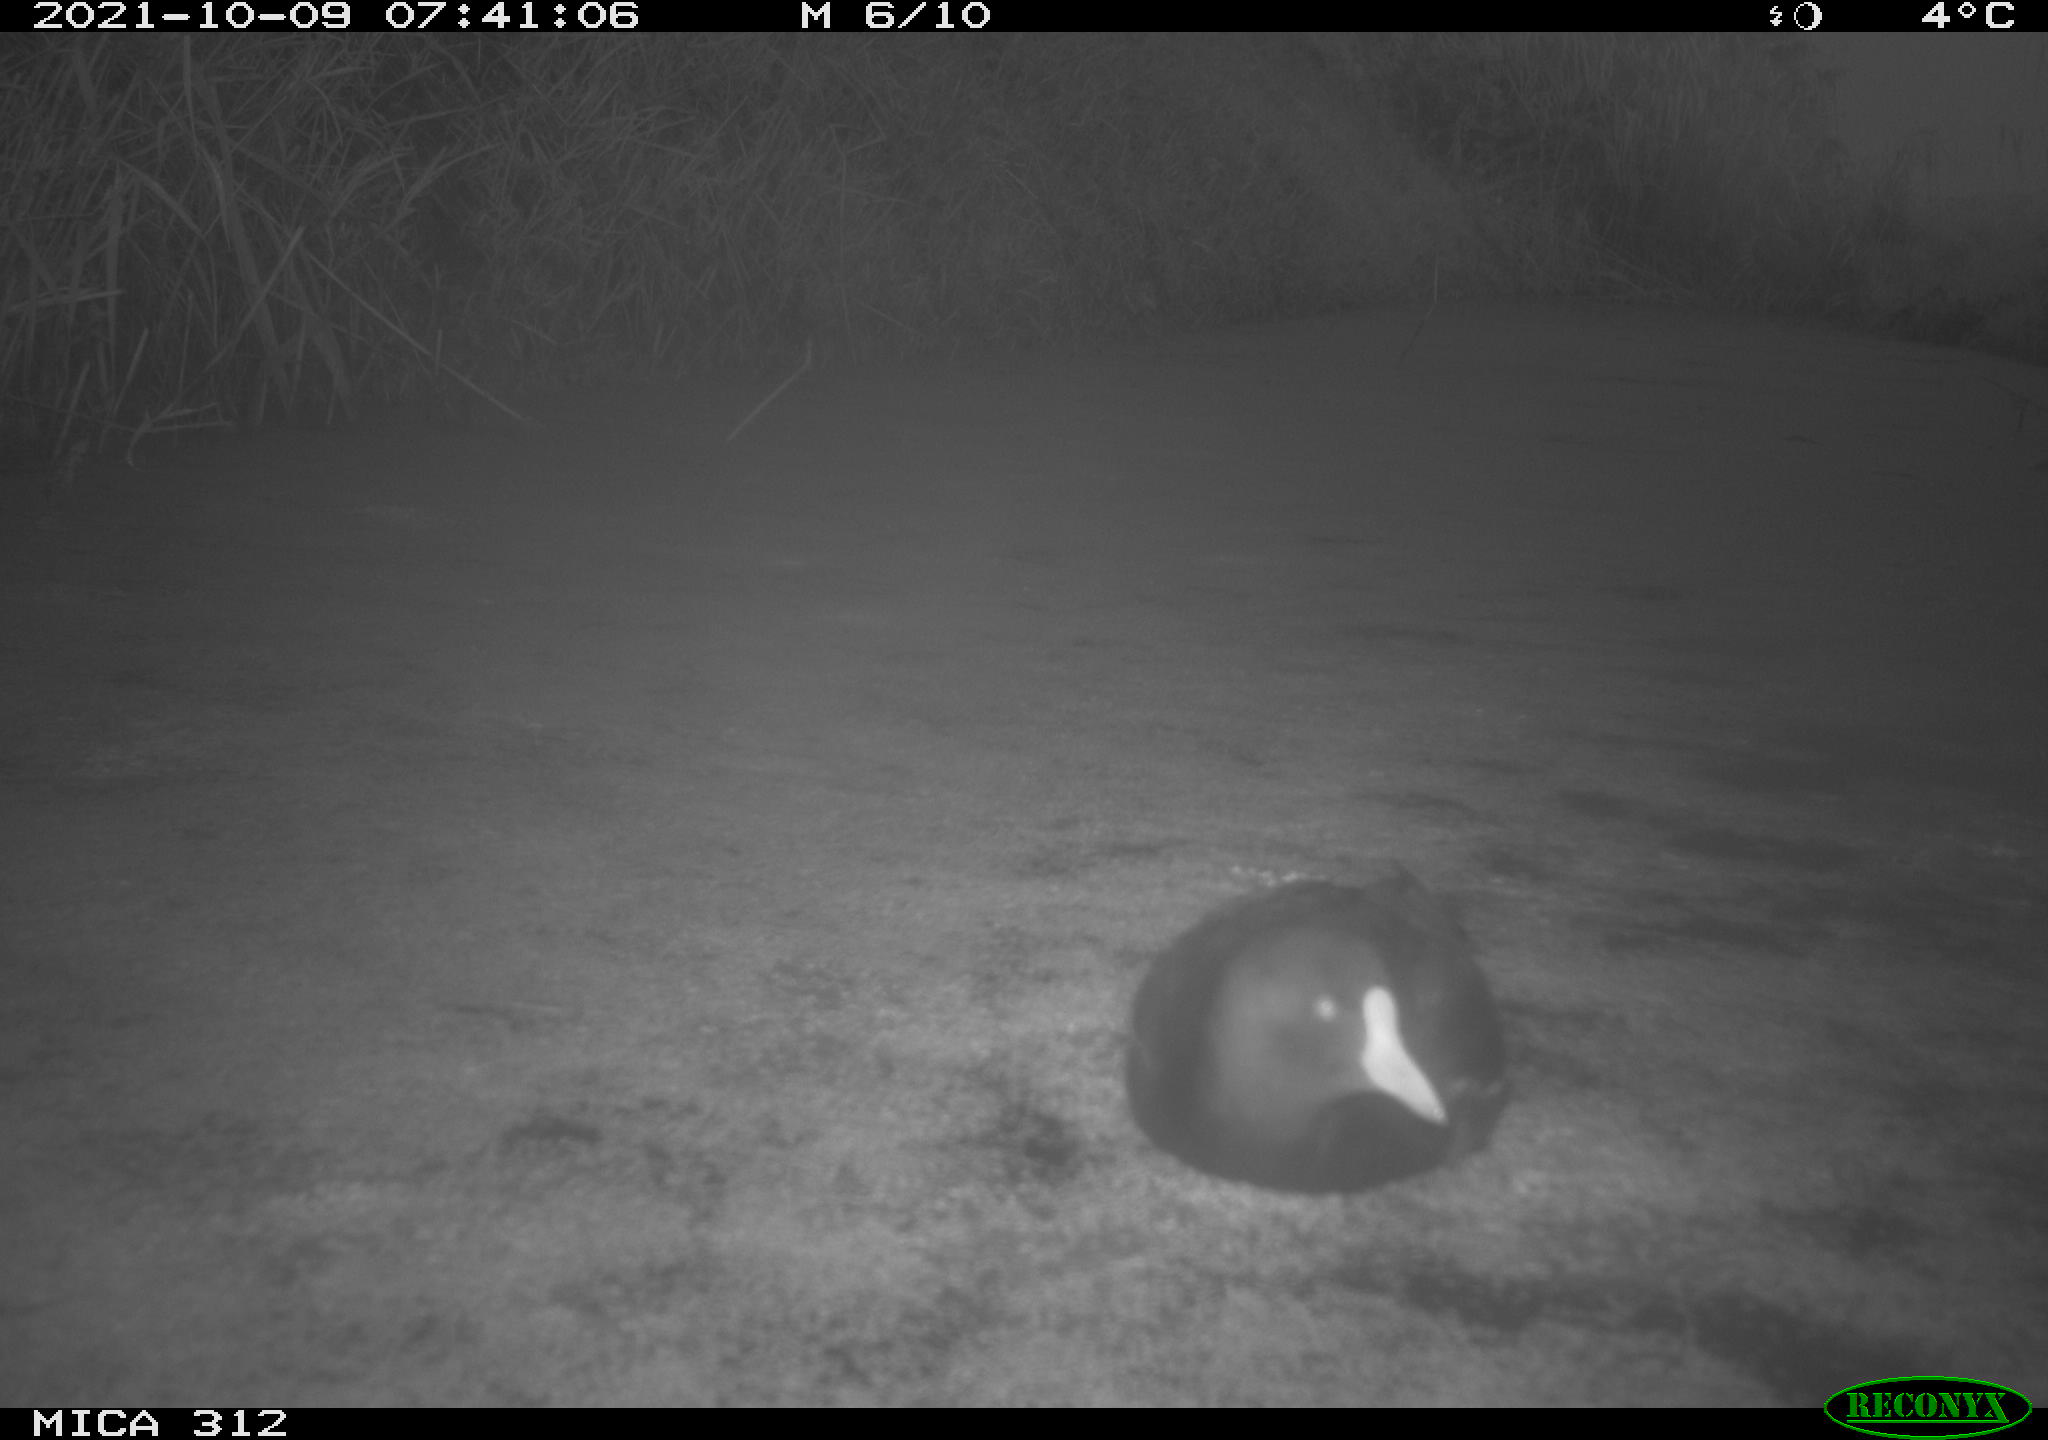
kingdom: Animalia
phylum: Chordata
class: Aves
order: Gruiformes
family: Rallidae
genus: Fulica
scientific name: Fulica atra
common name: Eurasian coot
